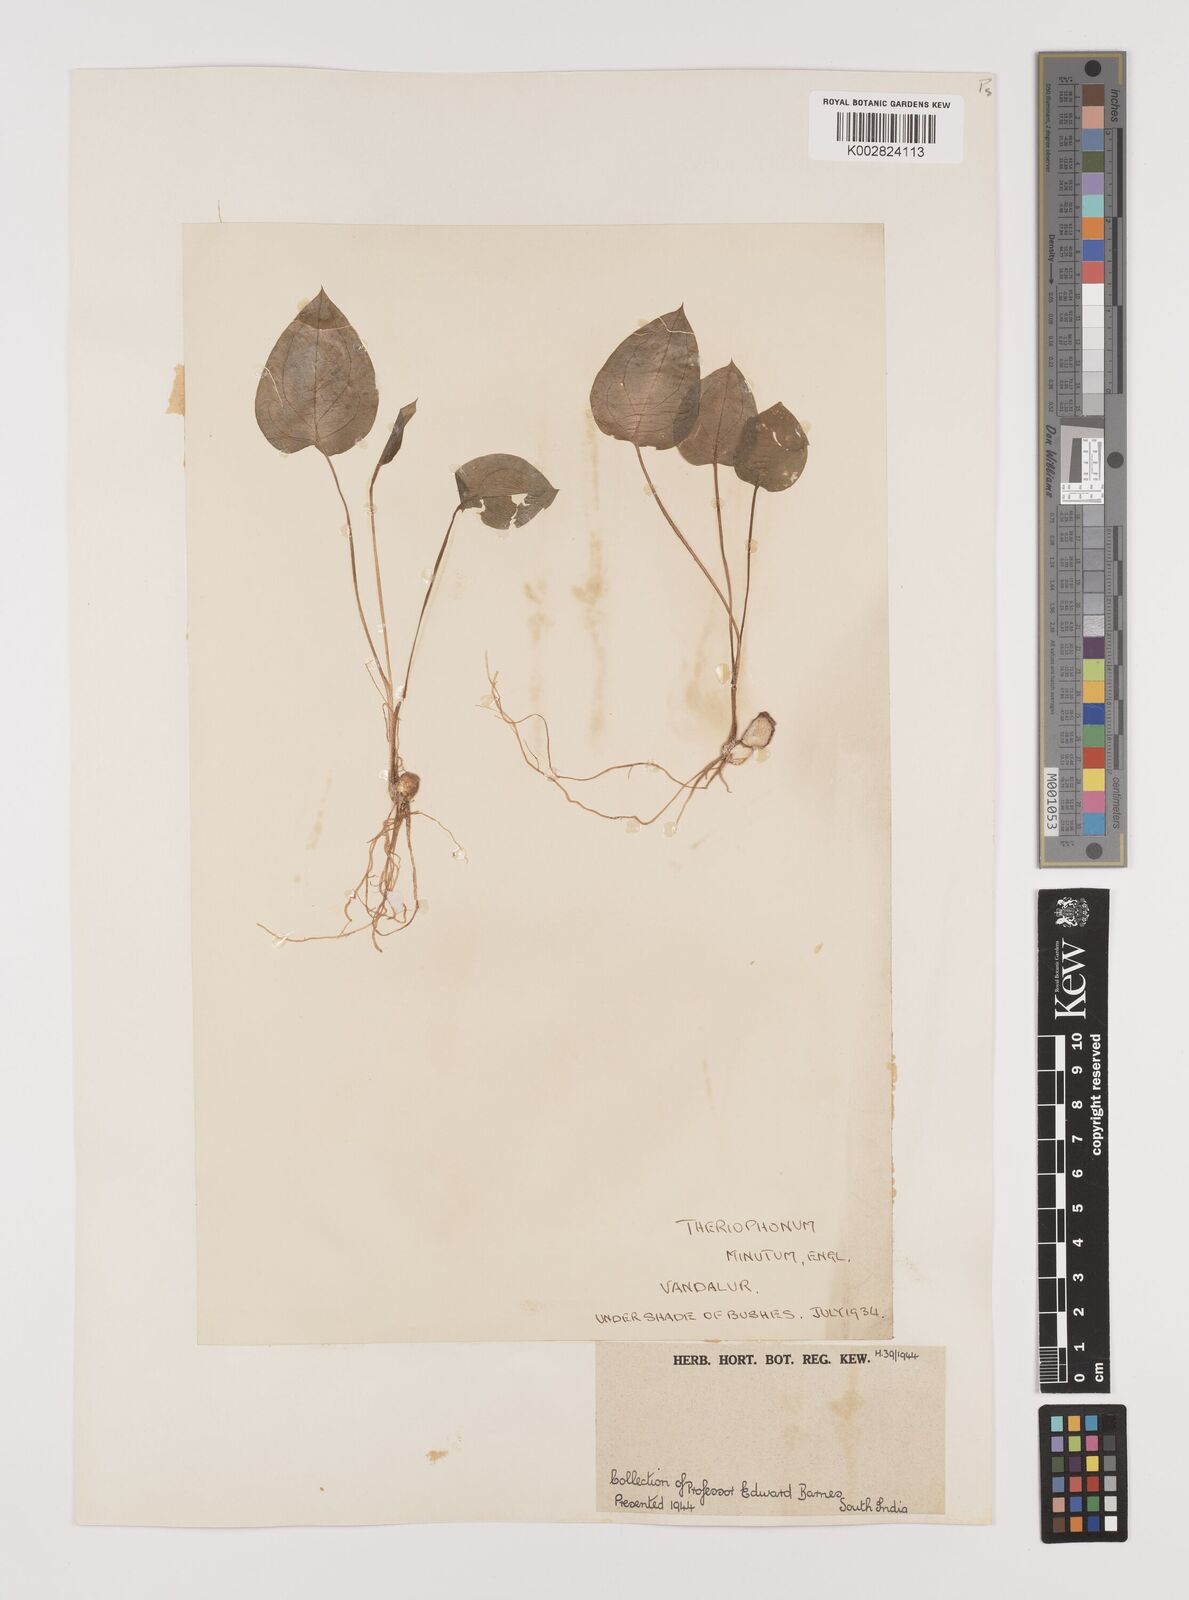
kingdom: Plantae
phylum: Tracheophyta
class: Liliopsida
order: Alismatales
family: Araceae
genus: Theriophonum
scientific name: Theriophonum minutum
